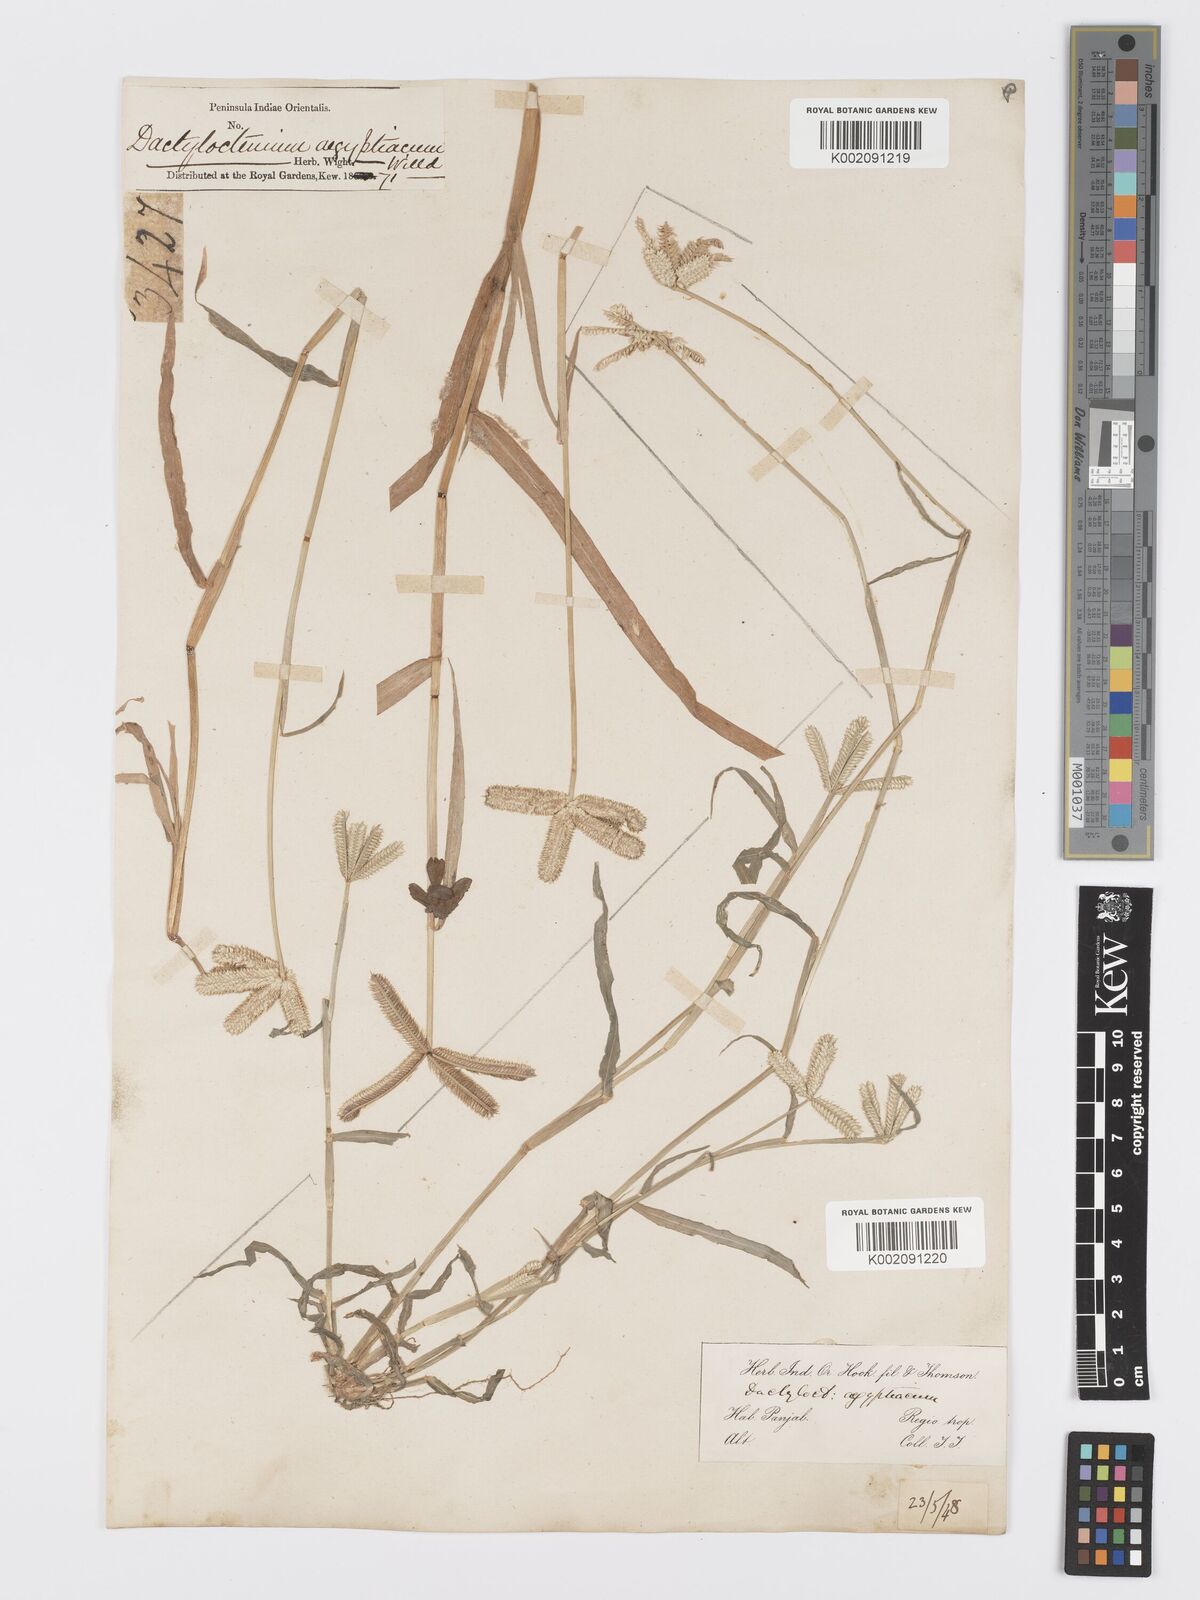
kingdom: Plantae
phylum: Tracheophyta
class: Liliopsida
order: Poales
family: Poaceae
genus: Dactyloctenium
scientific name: Dactyloctenium aegyptium
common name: Egyptian grass
